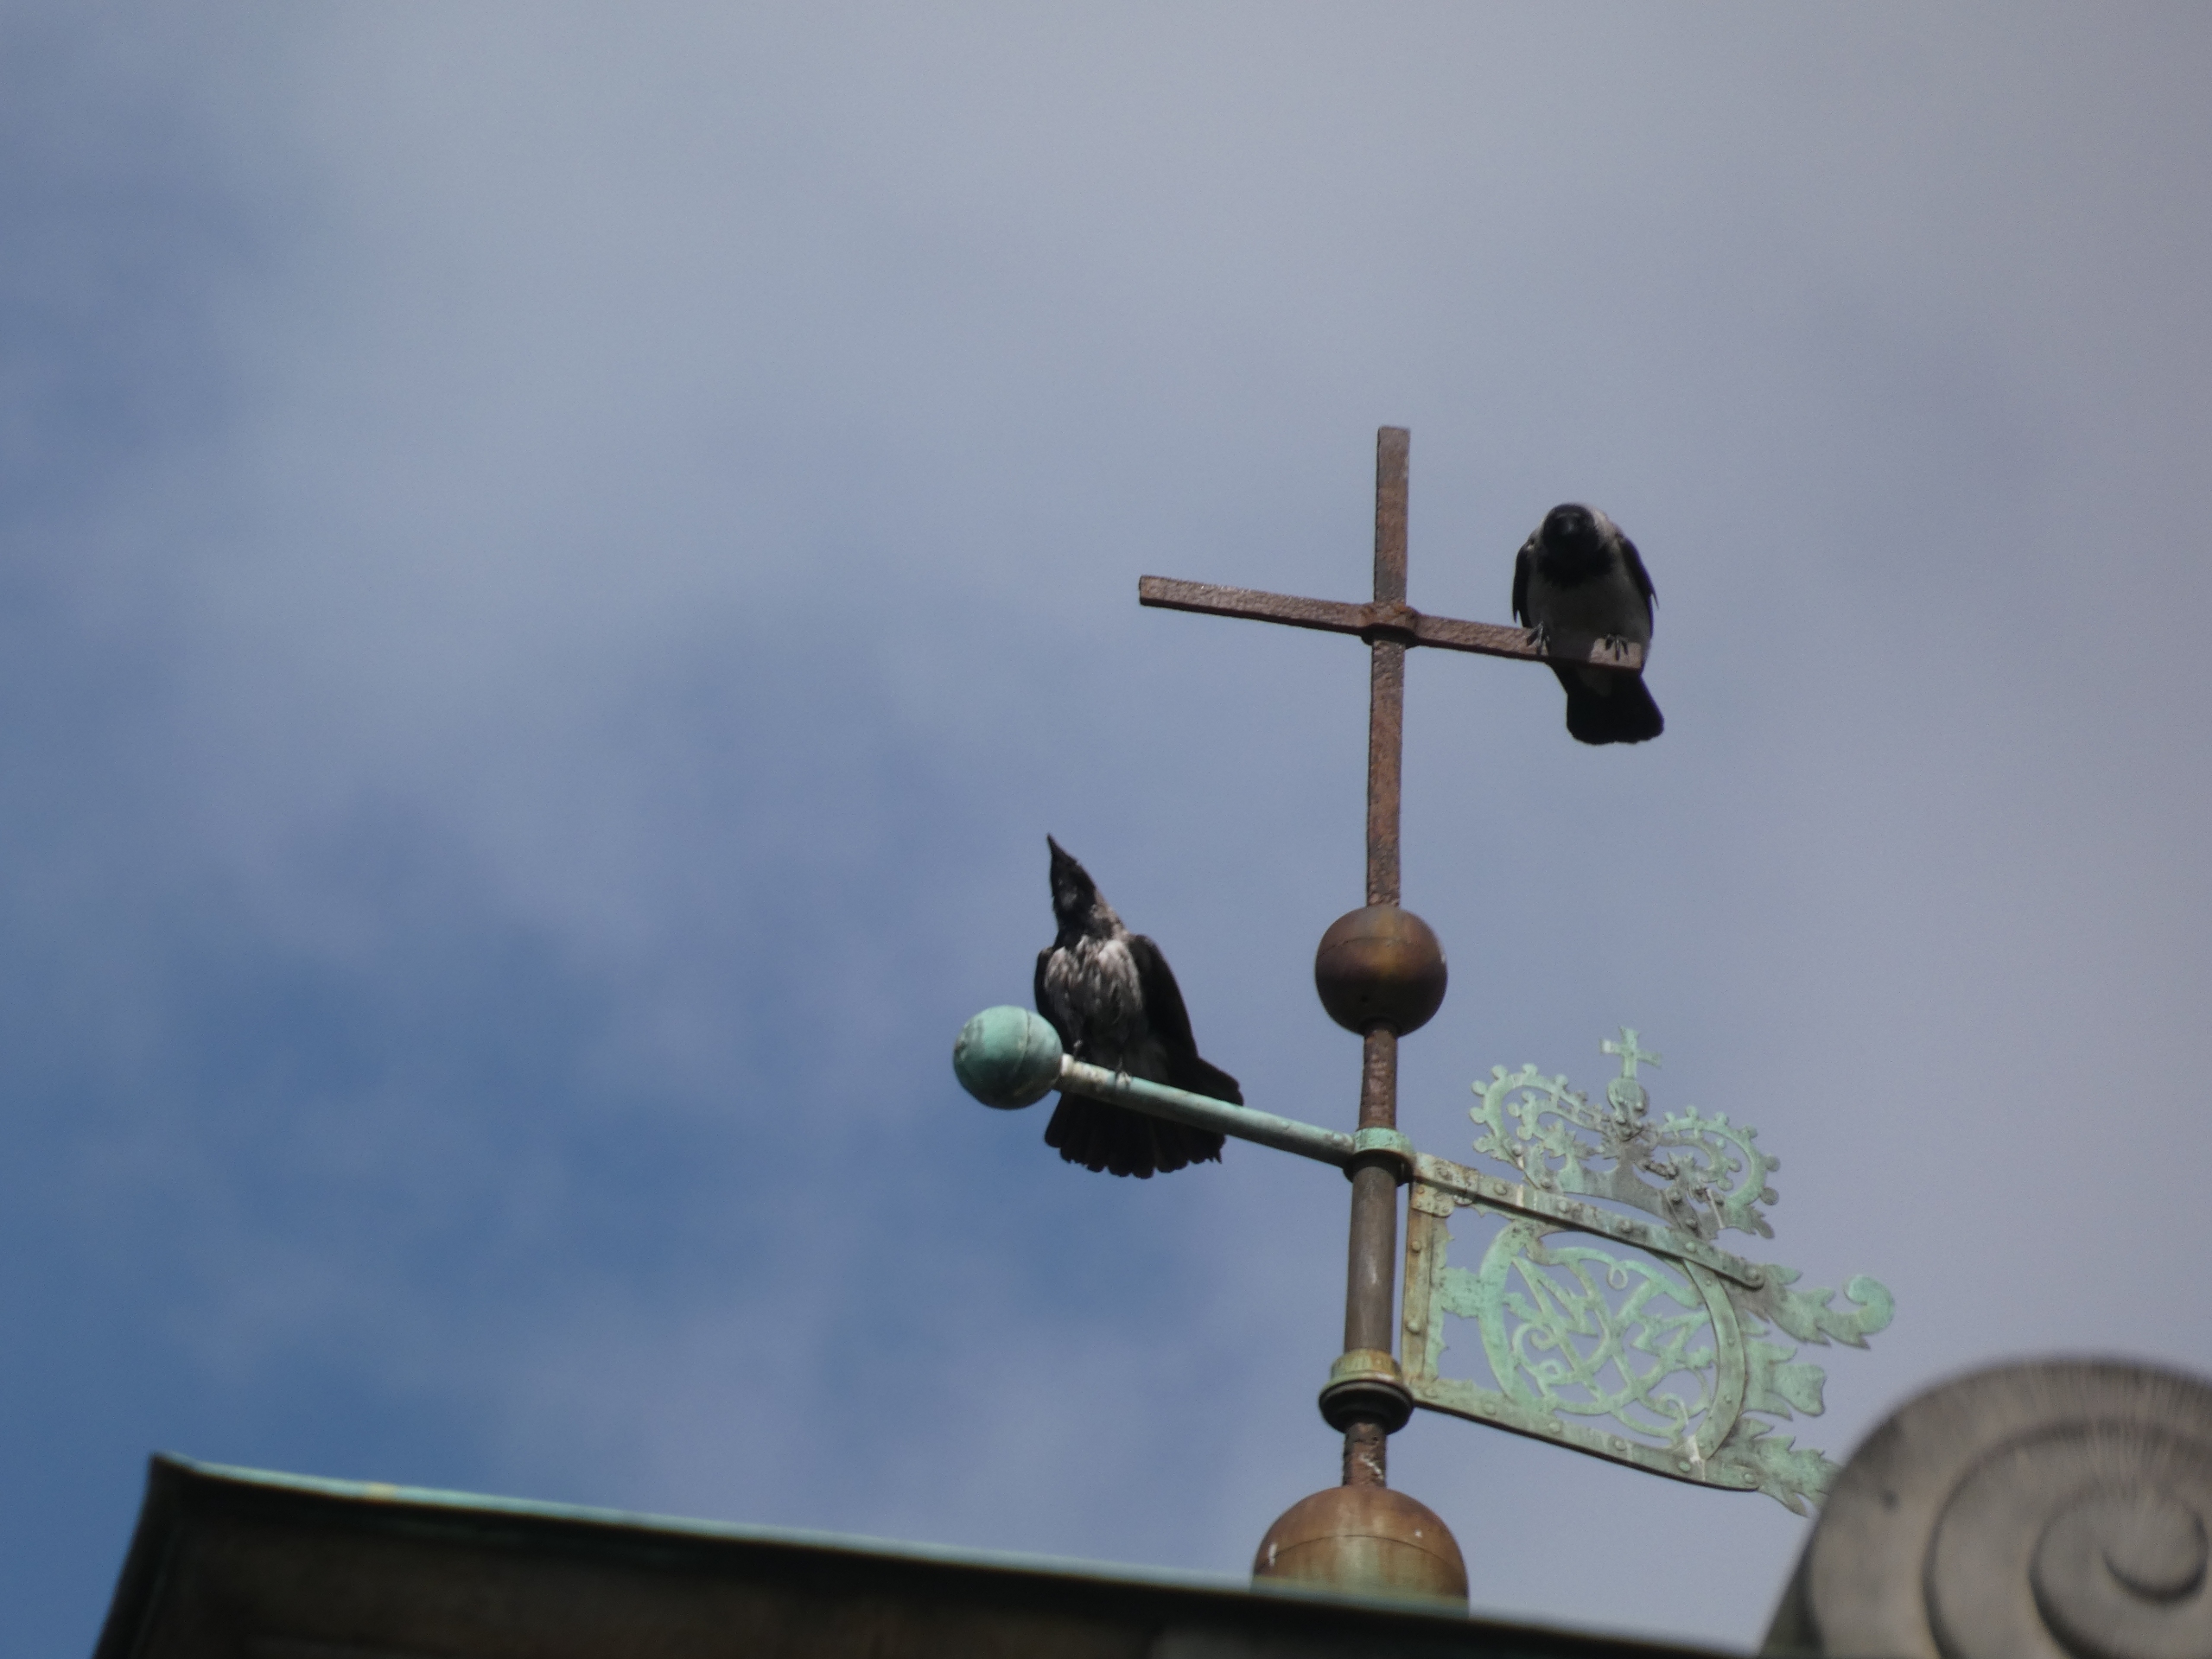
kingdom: Animalia
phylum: Chordata
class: Aves
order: Passeriformes
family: Corvidae
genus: Corvus
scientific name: Corvus cornix
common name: Gråkrage
